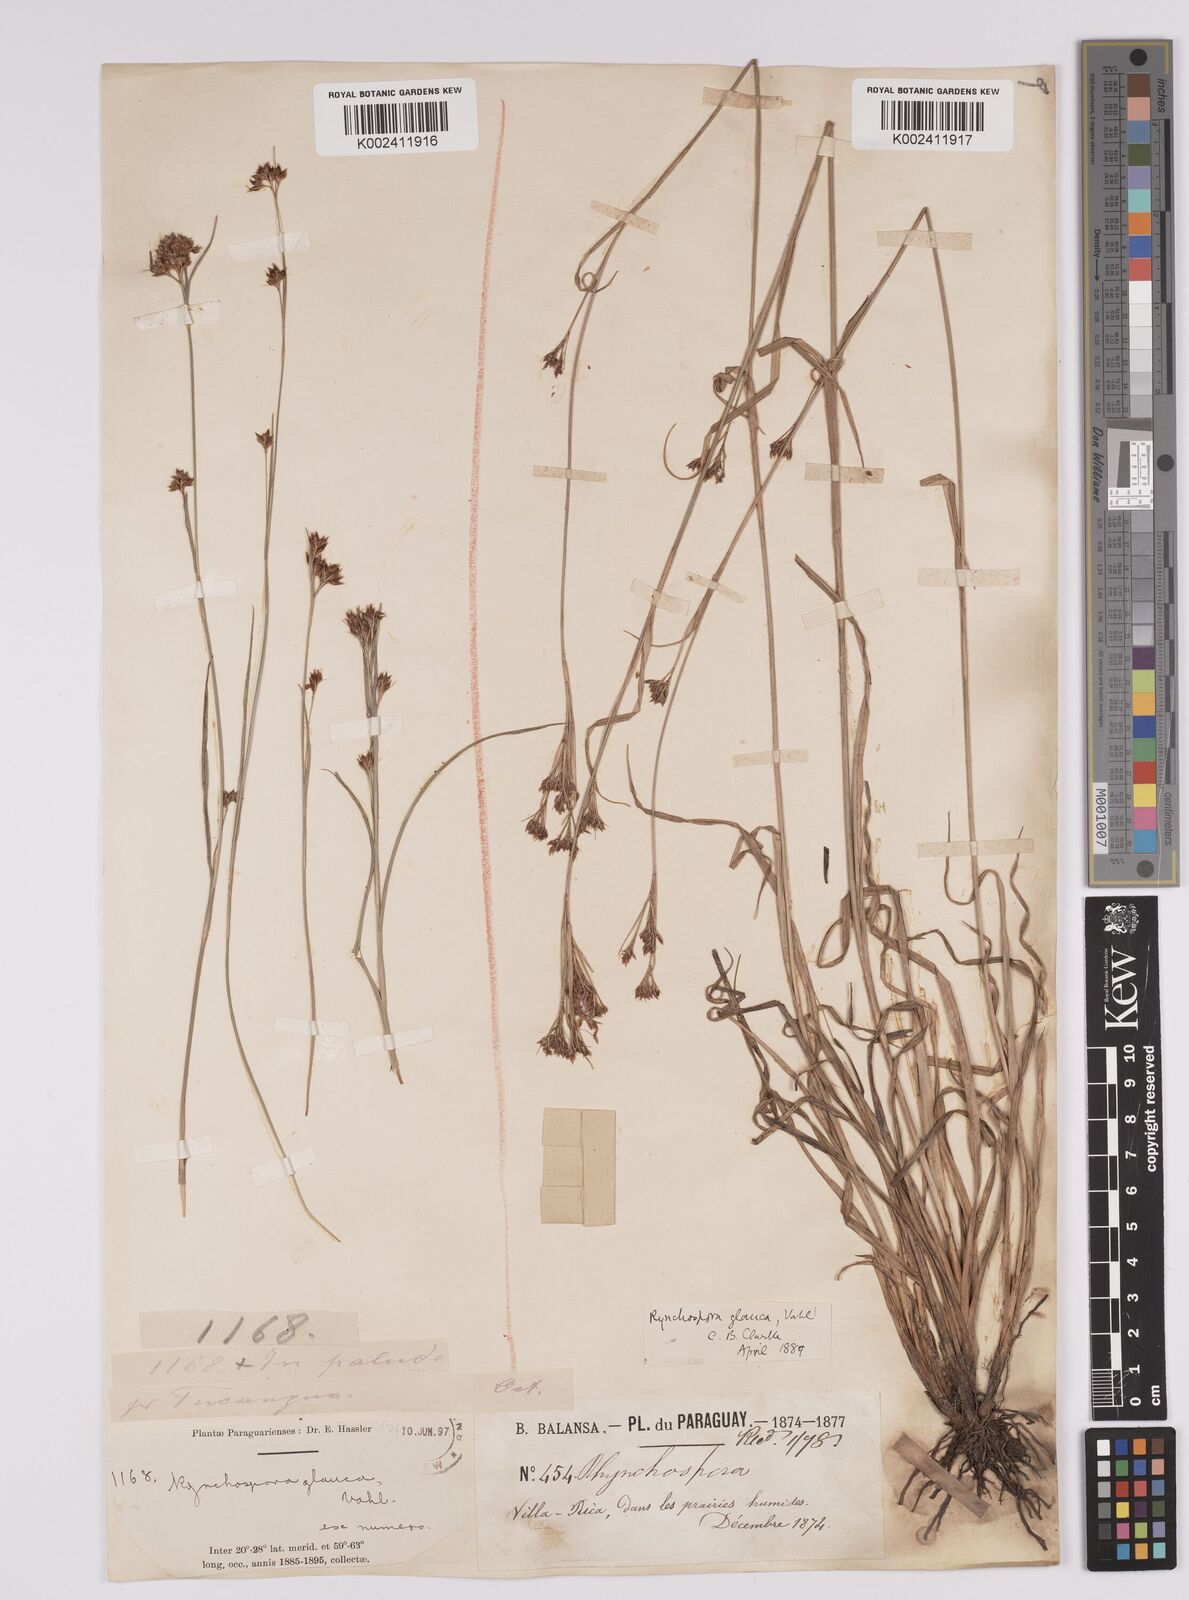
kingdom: Plantae
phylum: Tracheophyta
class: Liliopsida
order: Poales
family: Cyperaceae
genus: Rhynchospora
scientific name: Rhynchospora rugosa
